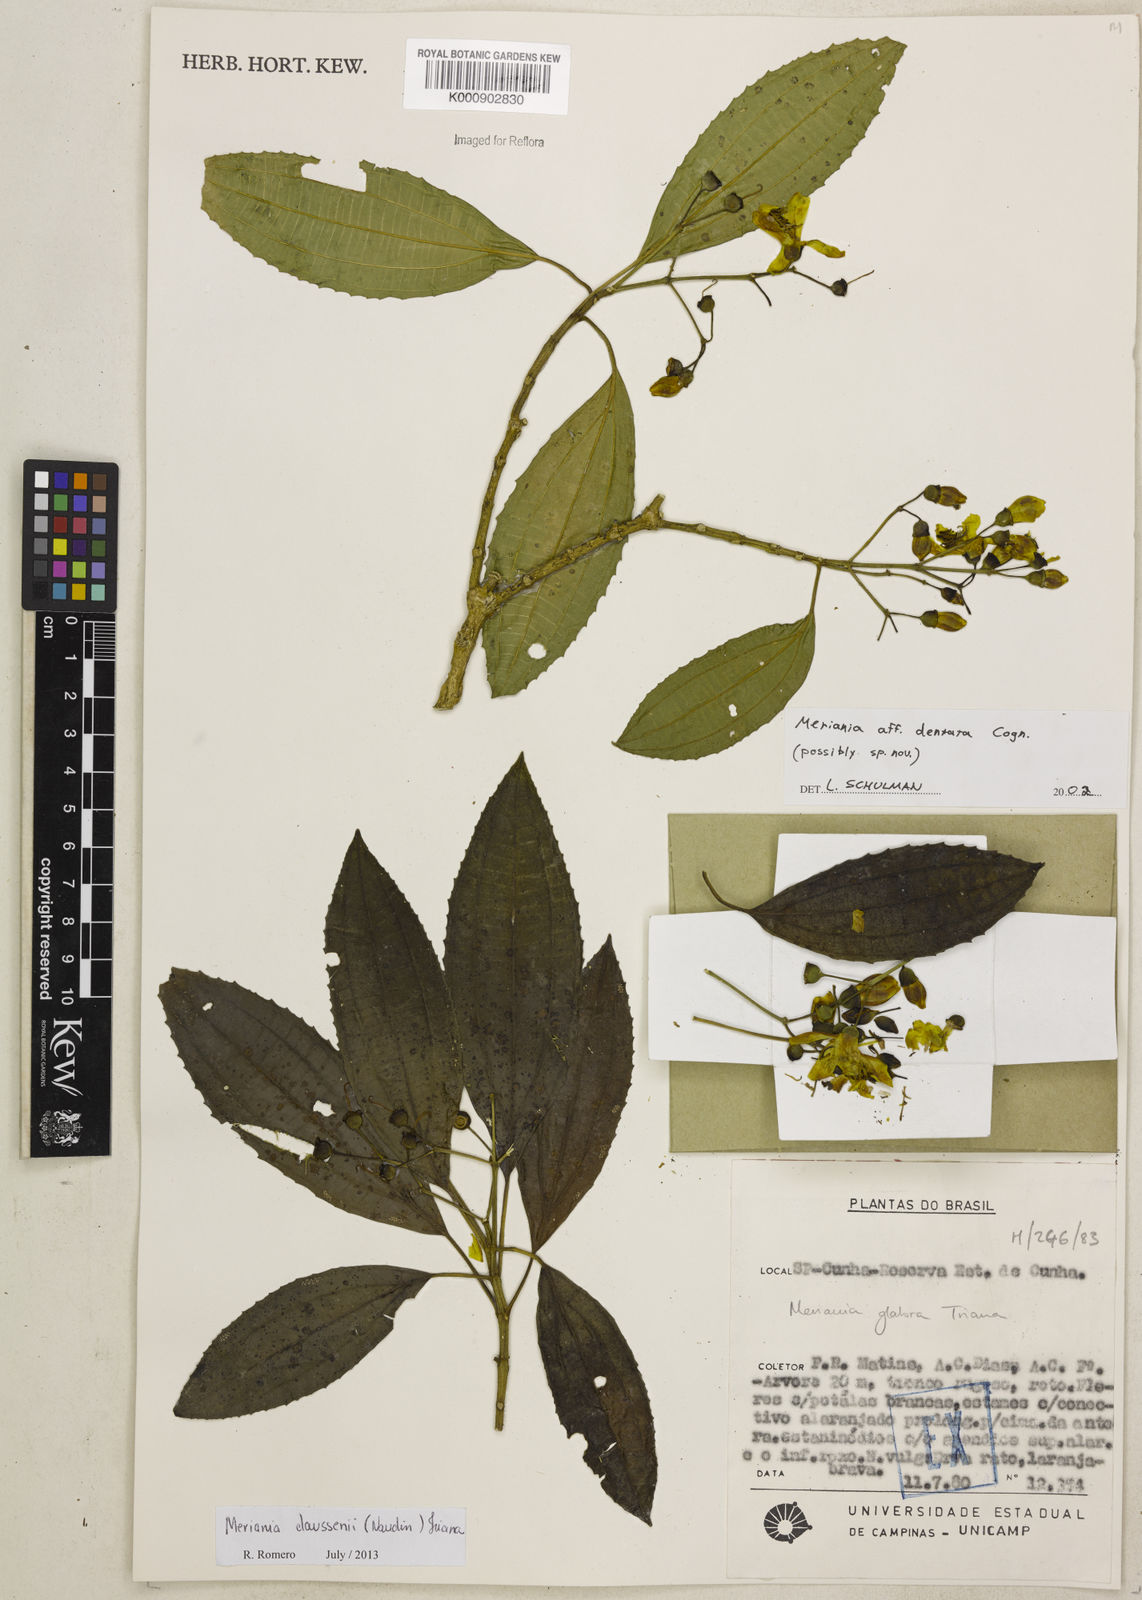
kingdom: Plantae
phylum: Tracheophyta
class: Magnoliopsida
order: Myrtales
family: Melastomataceae
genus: Meriania
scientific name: Meriania claussenii
